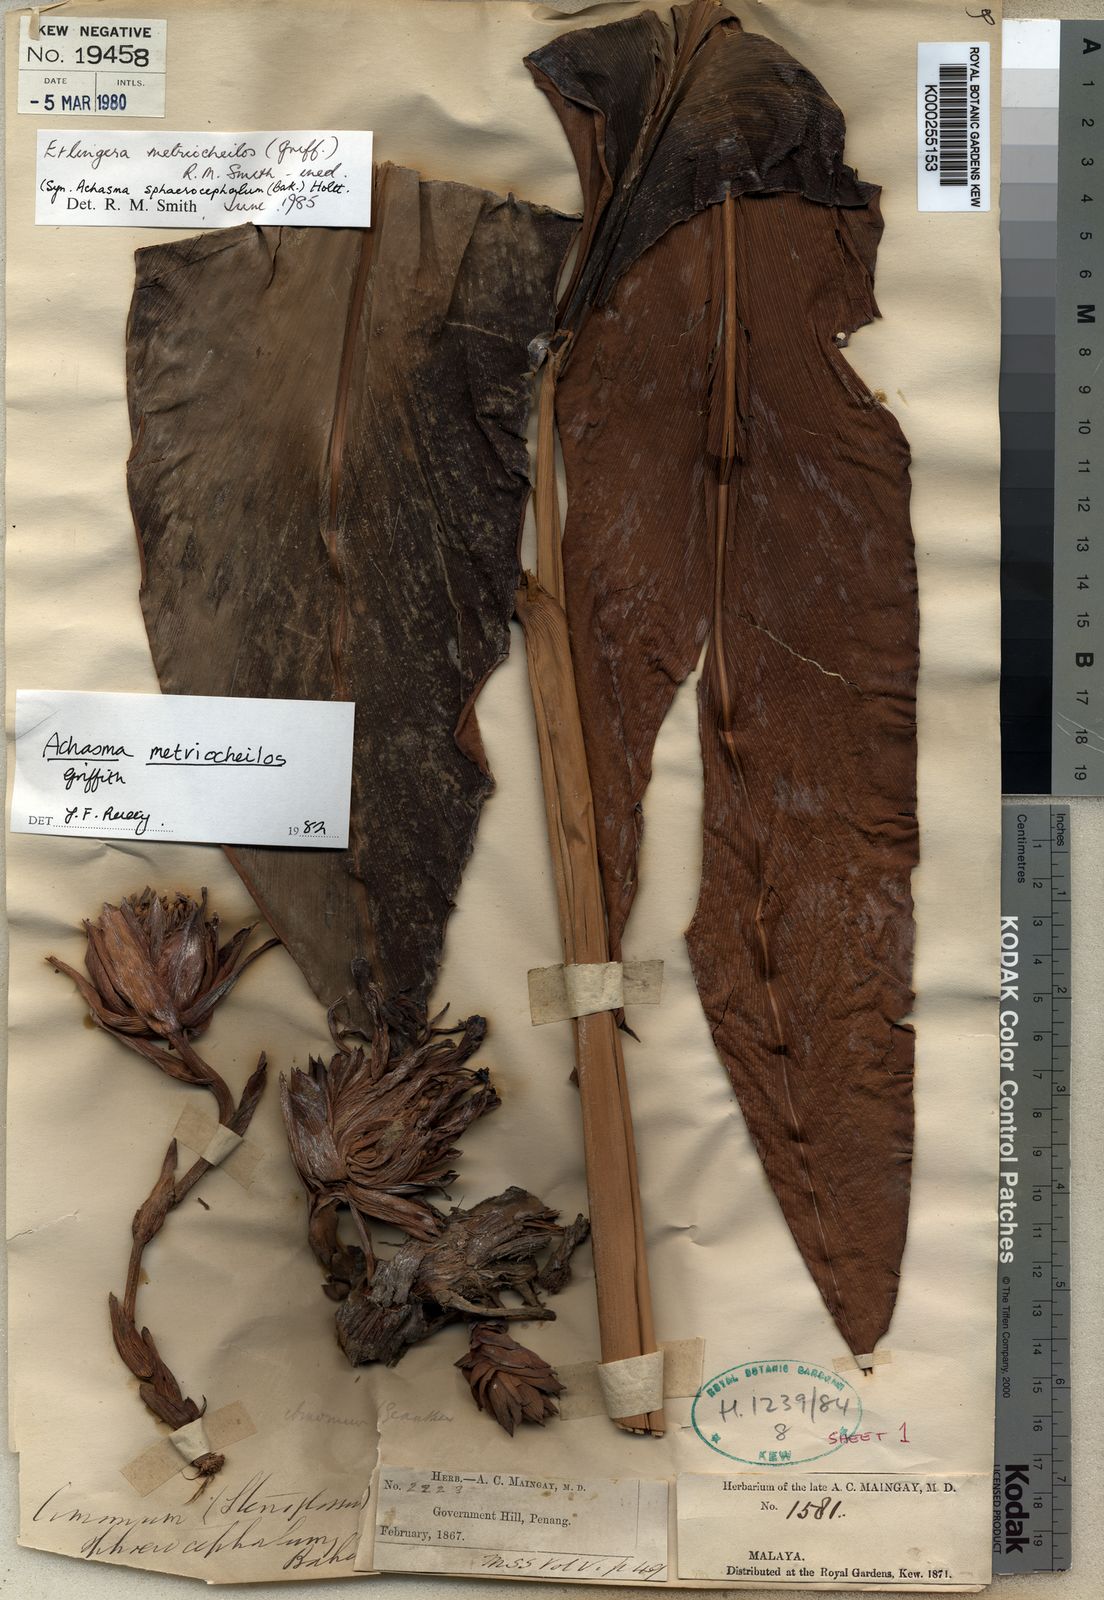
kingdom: Plantae
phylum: Tracheophyta
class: Liliopsida
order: Zingiberales
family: Zingiberaceae
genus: Etlingera
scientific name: Etlingera metriocheilos
